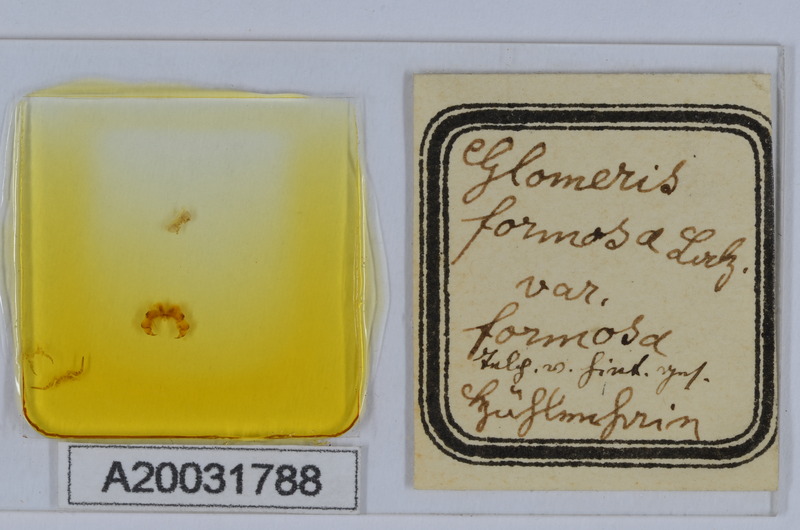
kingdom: Animalia
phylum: Arthropoda
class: Diplopoda
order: Glomerida
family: Glomeridae
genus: Hyleoglomeris
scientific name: Hyleoglomeris formosa
